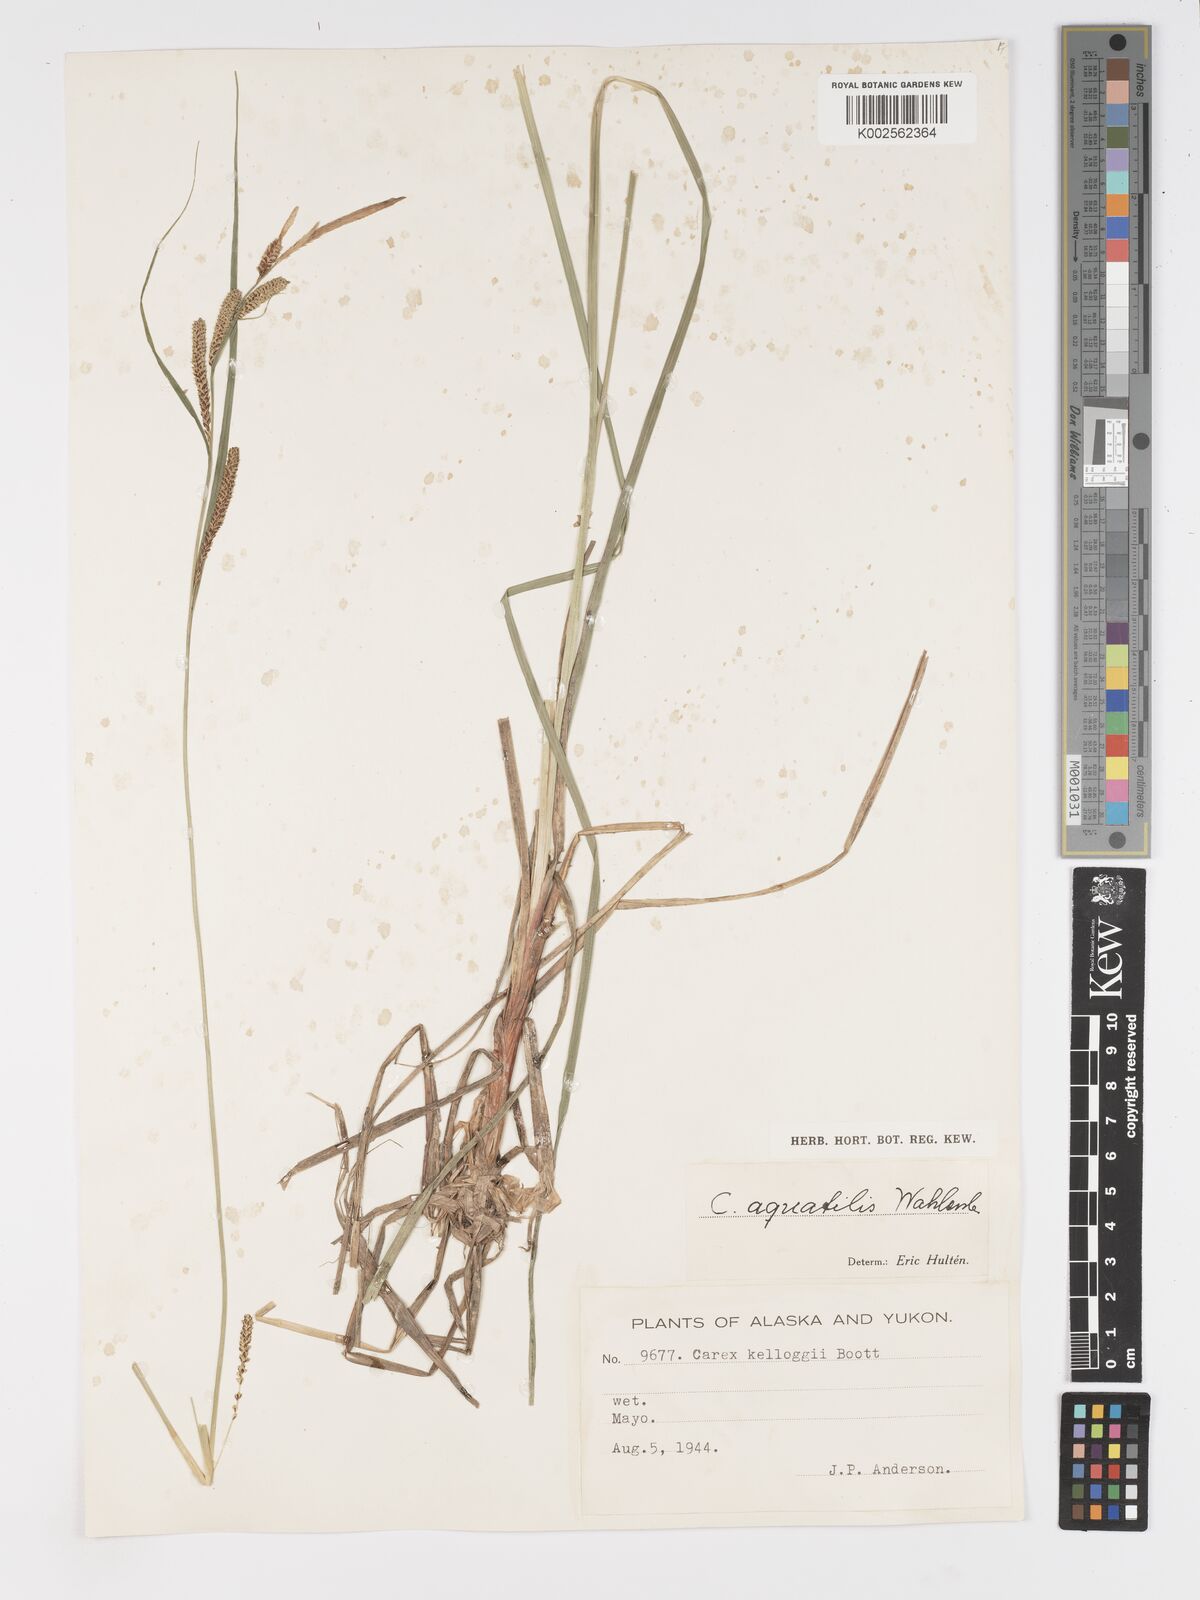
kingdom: Plantae
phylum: Tracheophyta
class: Liliopsida
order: Poales
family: Cyperaceae
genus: Carex
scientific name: Carex aquatilis
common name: Water sedge
